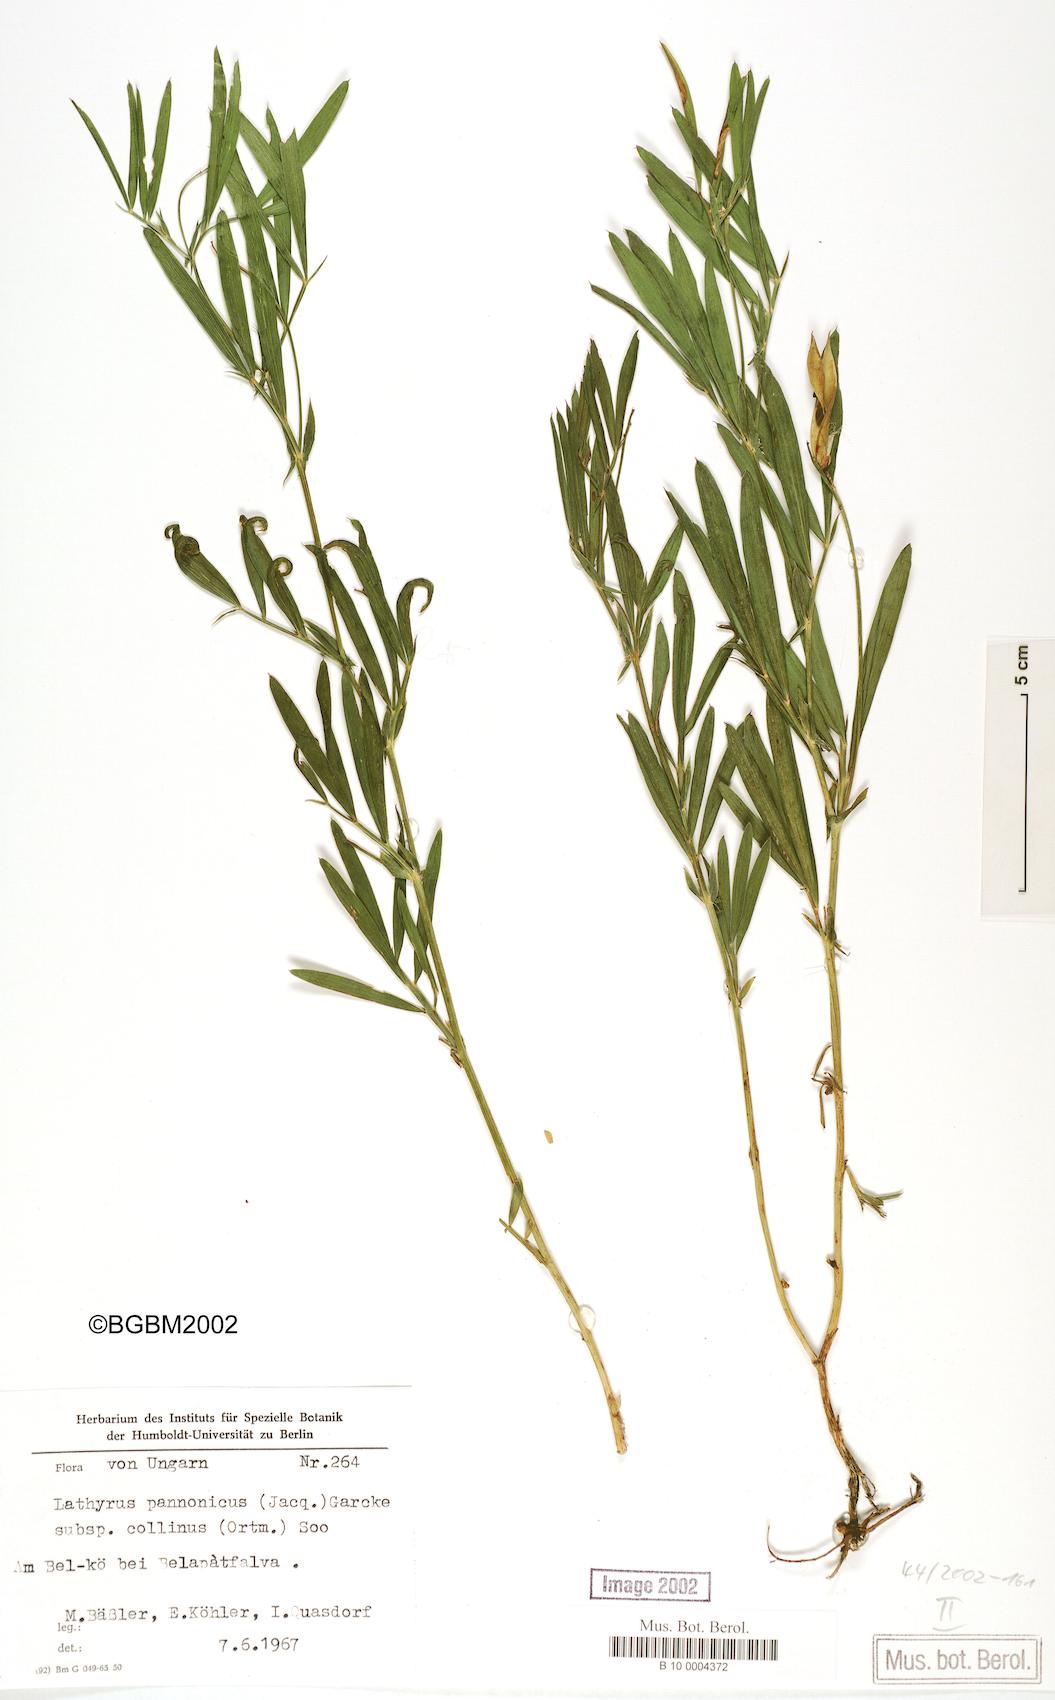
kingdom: Plantae
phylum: Tracheophyta
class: Magnoliopsida
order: Fabales
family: Fabaceae
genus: Lathyrus
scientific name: Lathyrus pannonicus
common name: Pea
